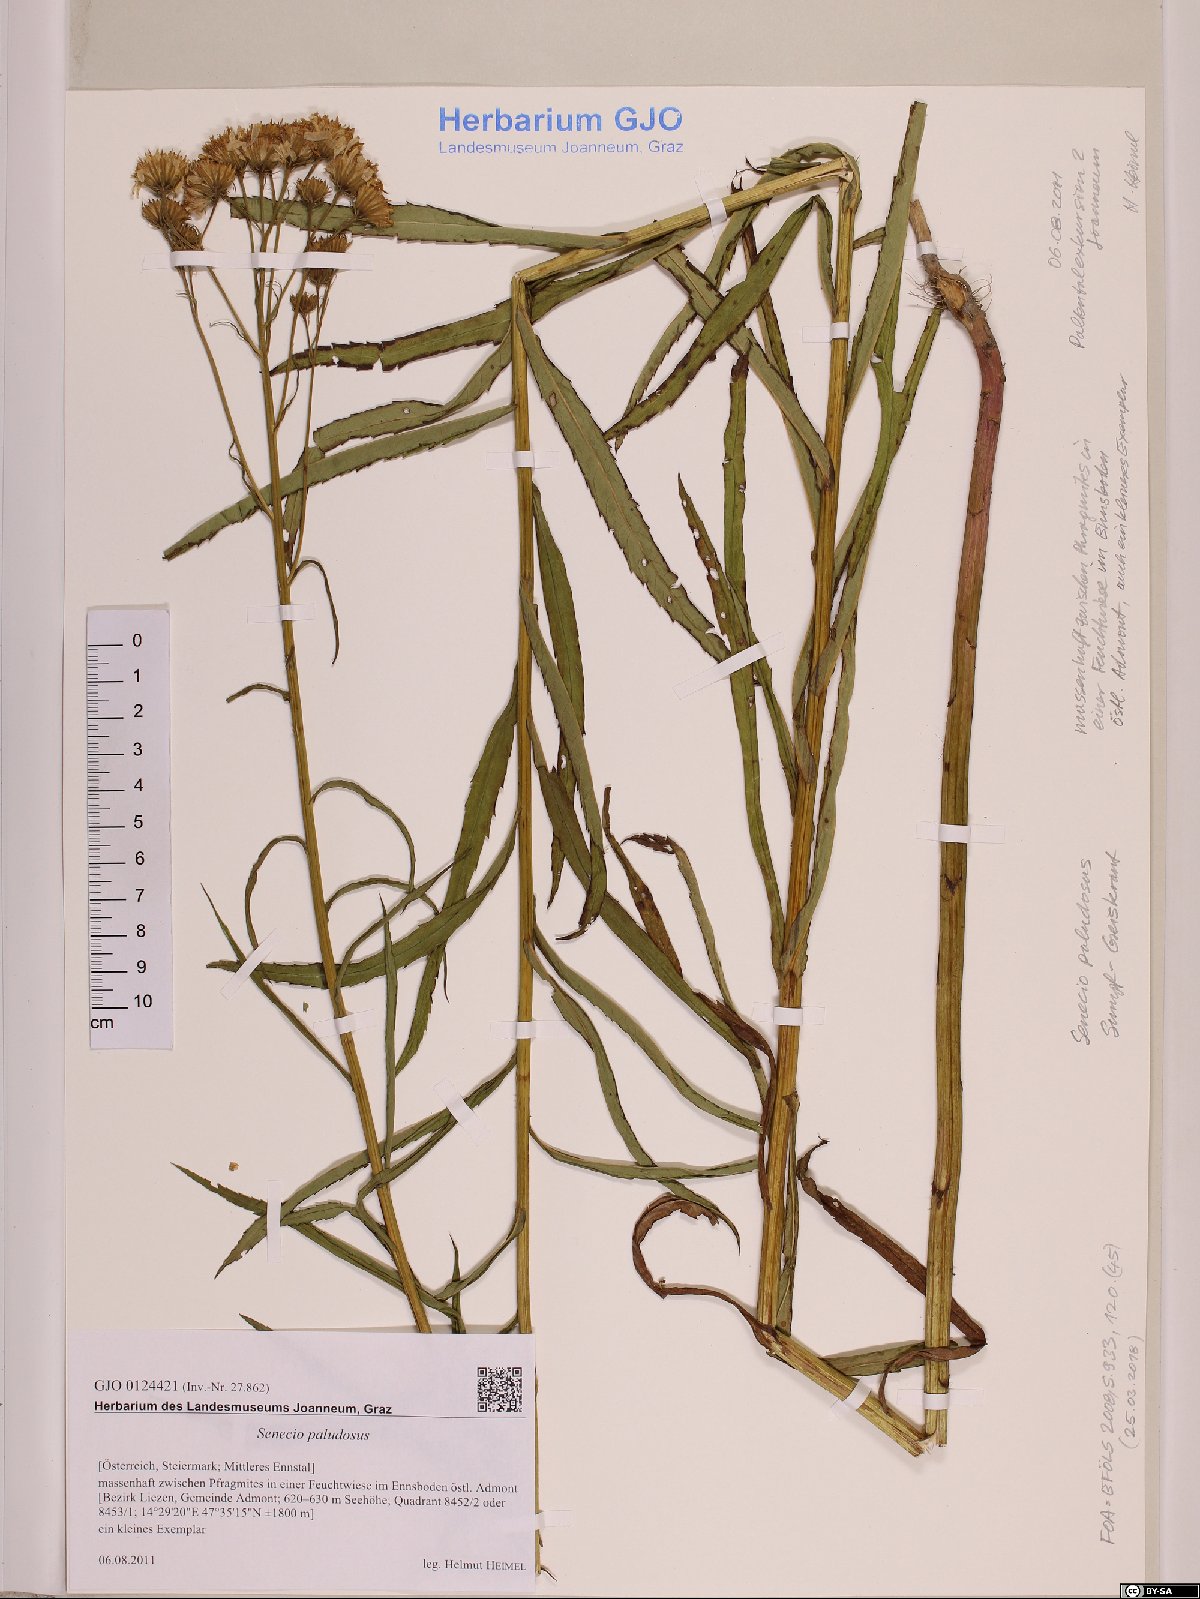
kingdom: Plantae
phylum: Tracheophyta
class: Magnoliopsida
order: Asterales
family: Asteraceae
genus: Jacobaea
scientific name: Jacobaea paludosa
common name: Fen ragwort
